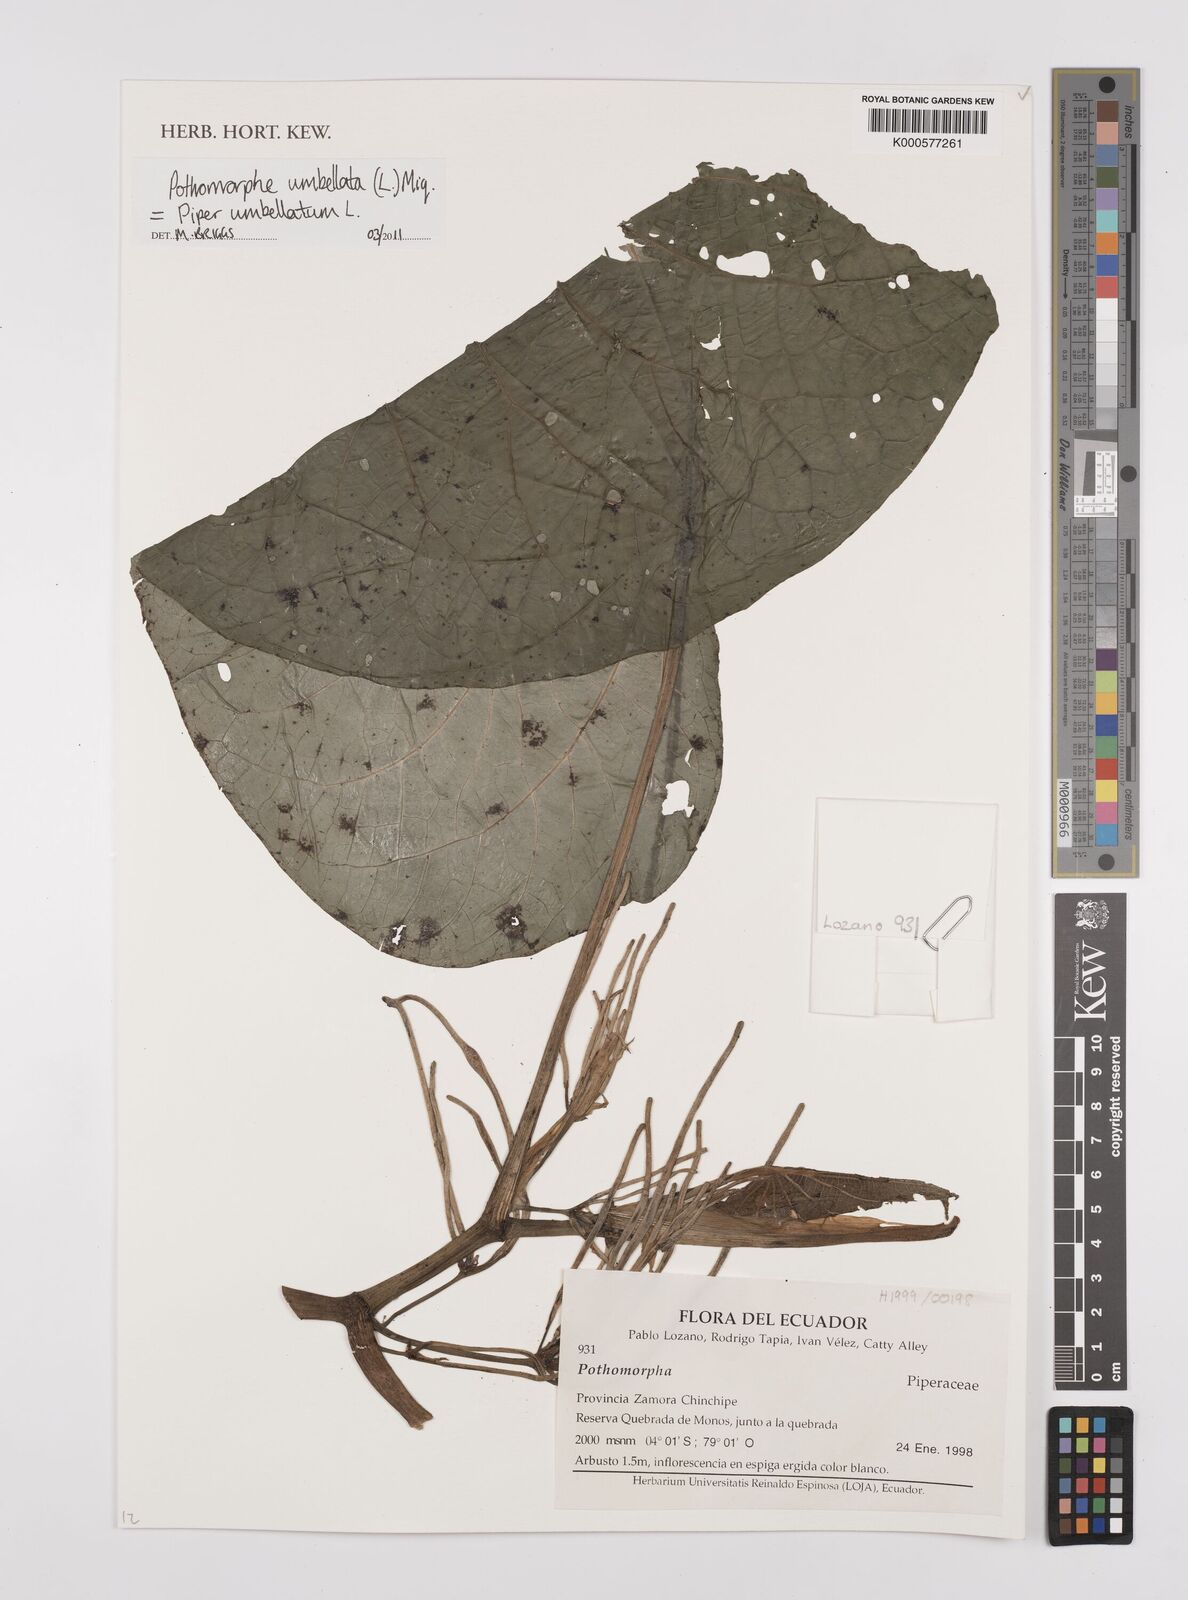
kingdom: Plantae
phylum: Tracheophyta
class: Magnoliopsida
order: Piperales
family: Piperaceae
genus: Piper
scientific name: Piper umbellatum
